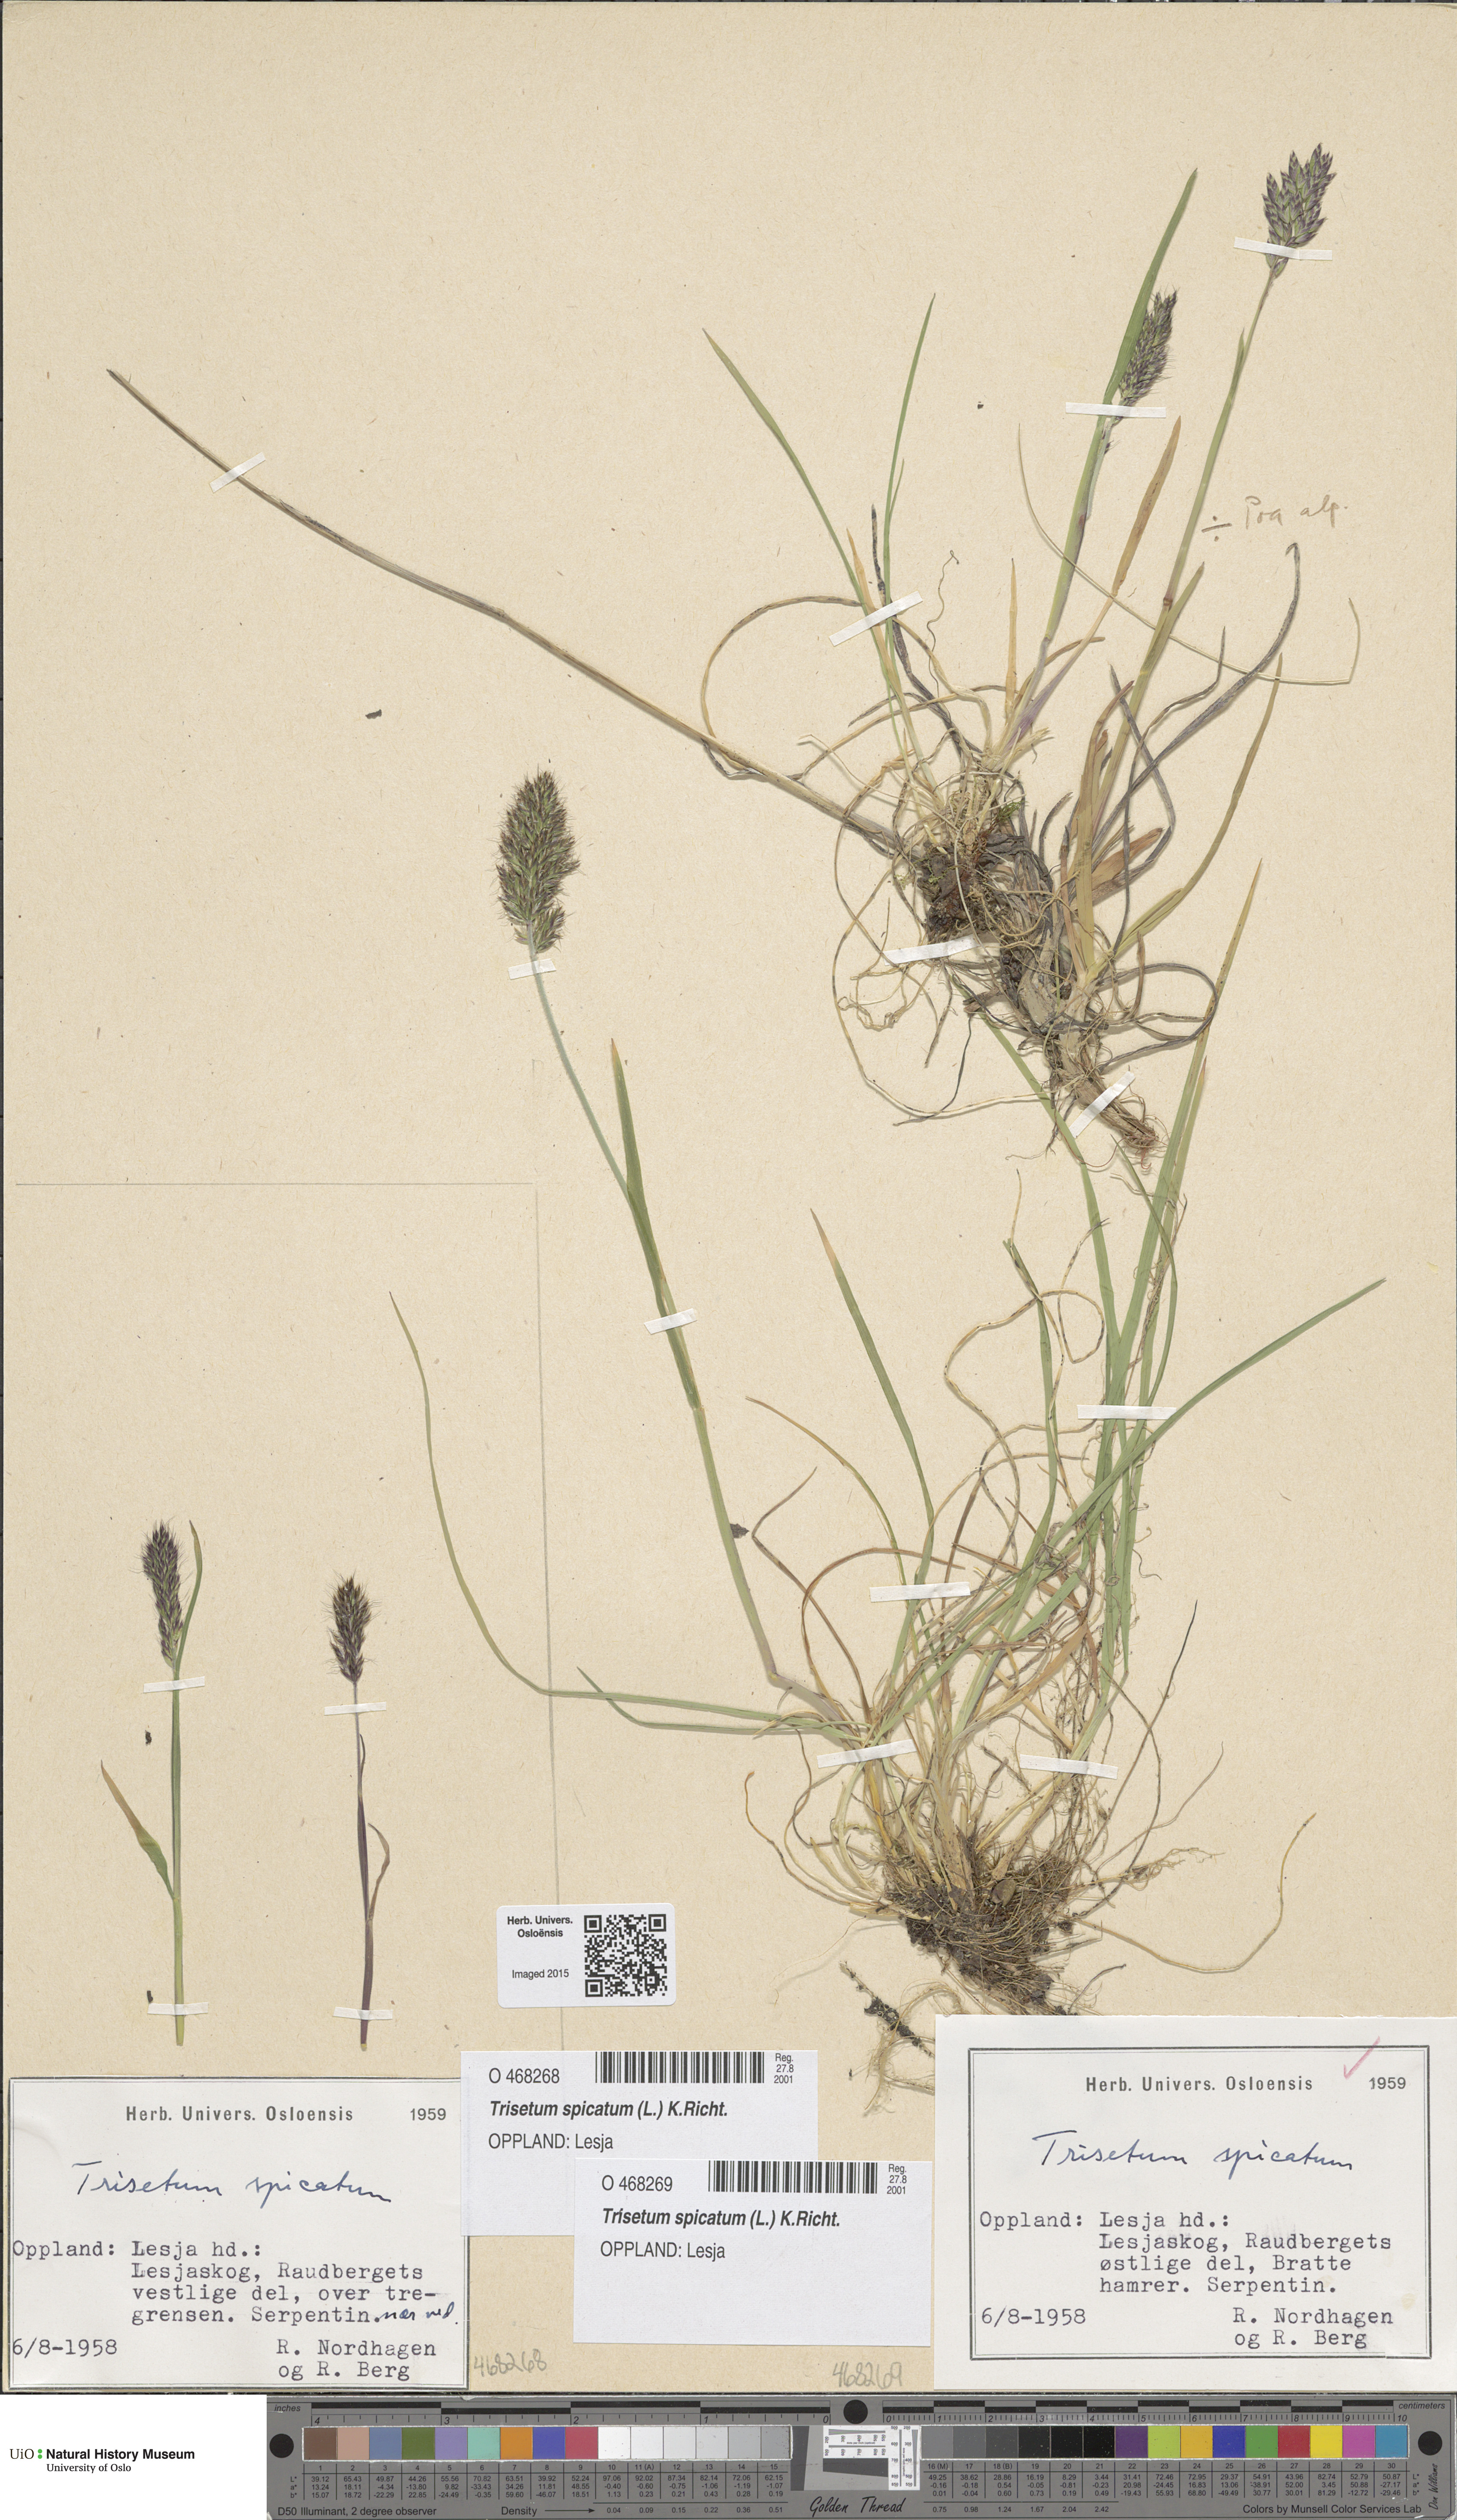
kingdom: Plantae
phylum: Tracheophyta
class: Liliopsida
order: Poales
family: Poaceae
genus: Koeleria
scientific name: Koeleria spicata
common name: Mountain trisetum
